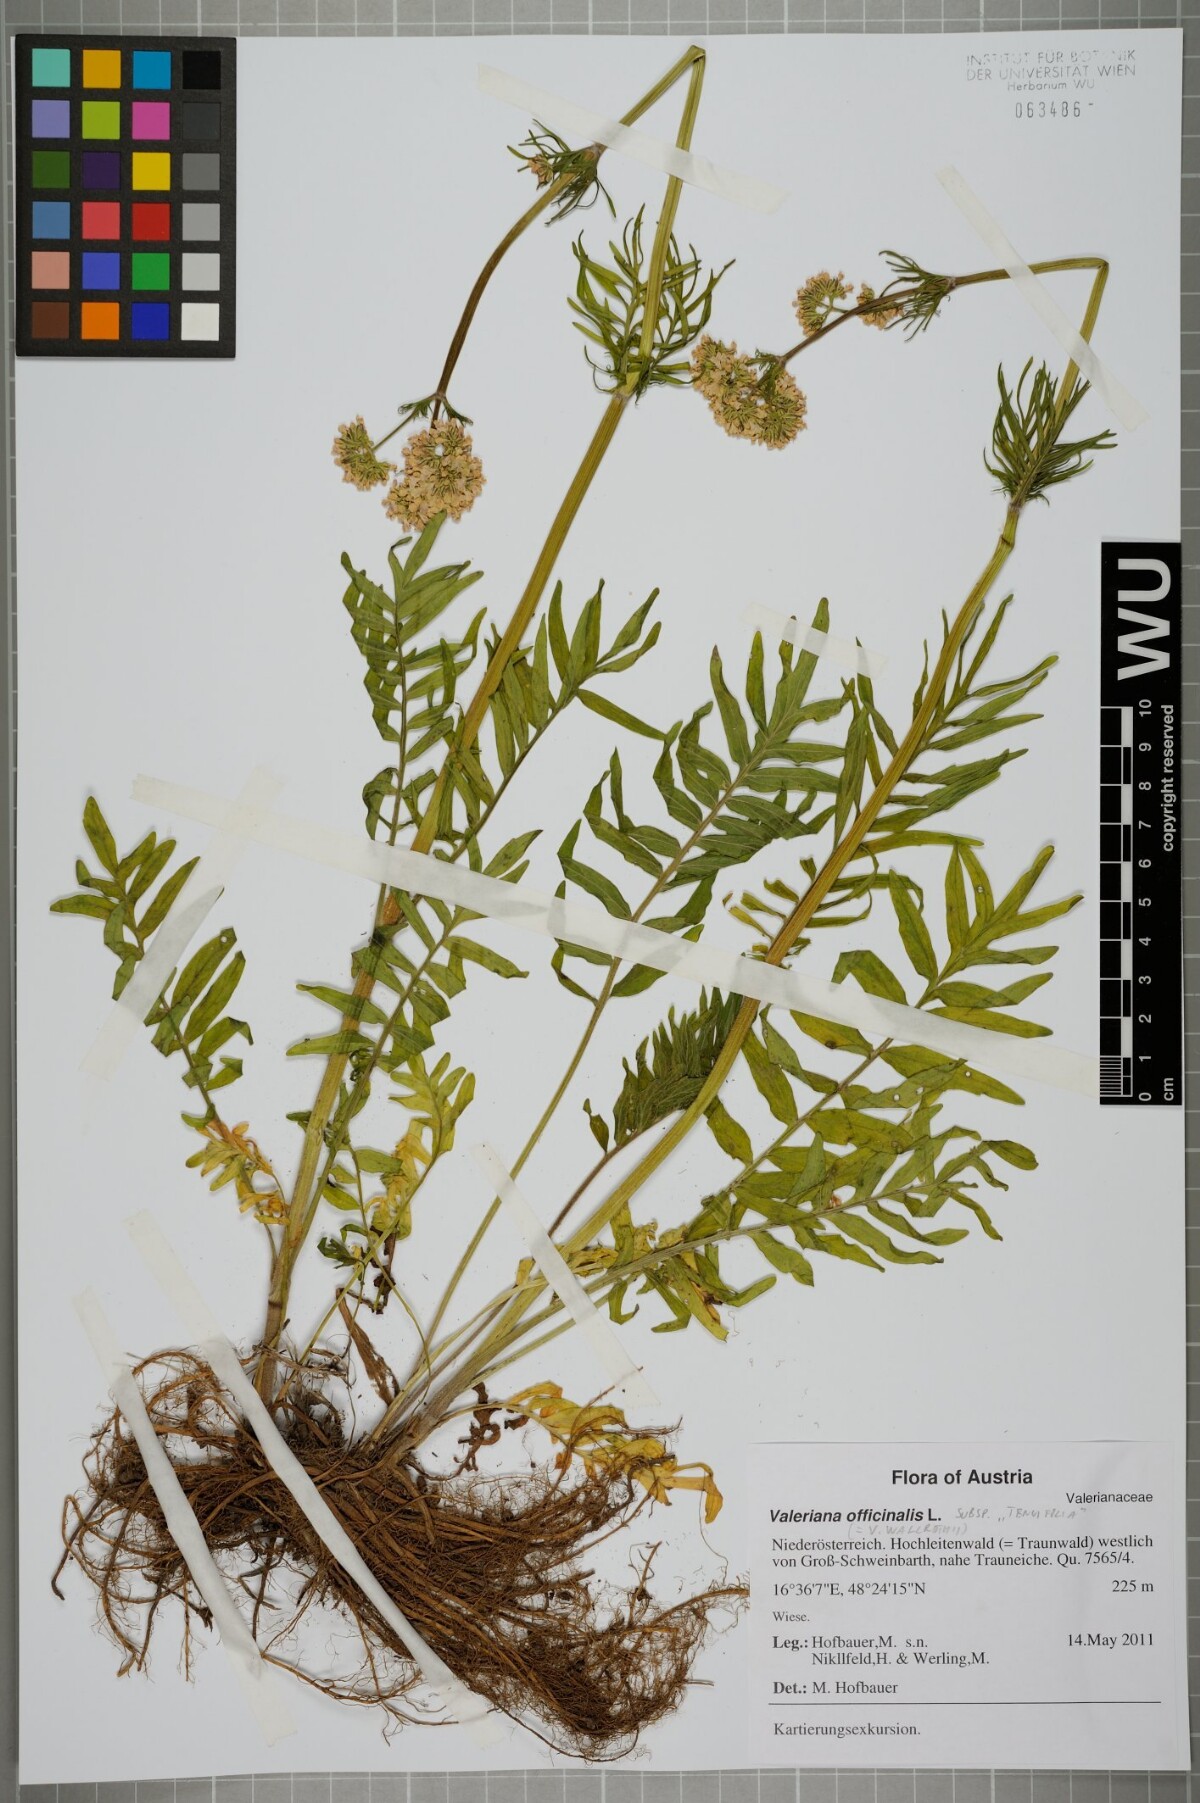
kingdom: Plantae
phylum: Tracheophyta
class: Magnoliopsida
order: Dipsacales
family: Caprifoliaceae
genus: Valeriana
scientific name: Valeriana officinalis
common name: Common valerian
